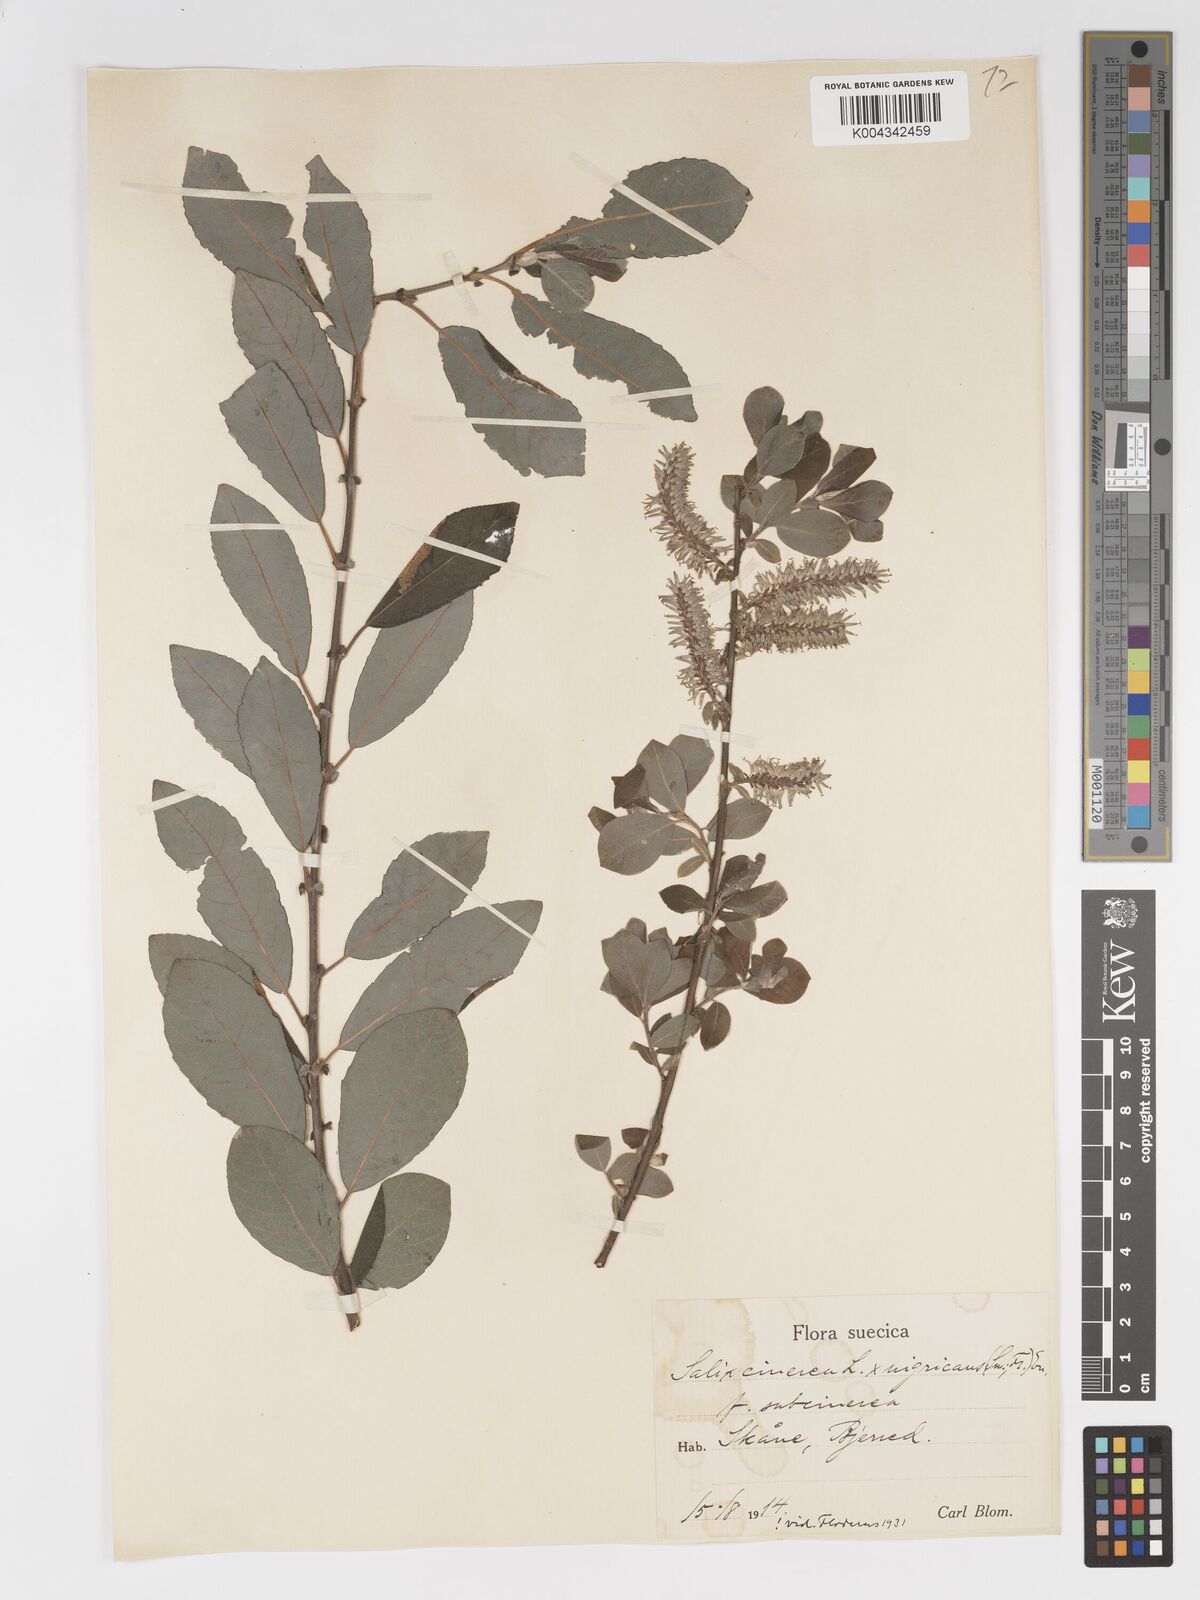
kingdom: Plantae
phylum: Tracheophyta
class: Magnoliopsida
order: Malpighiales
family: Salicaceae
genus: Salix
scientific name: Salix
